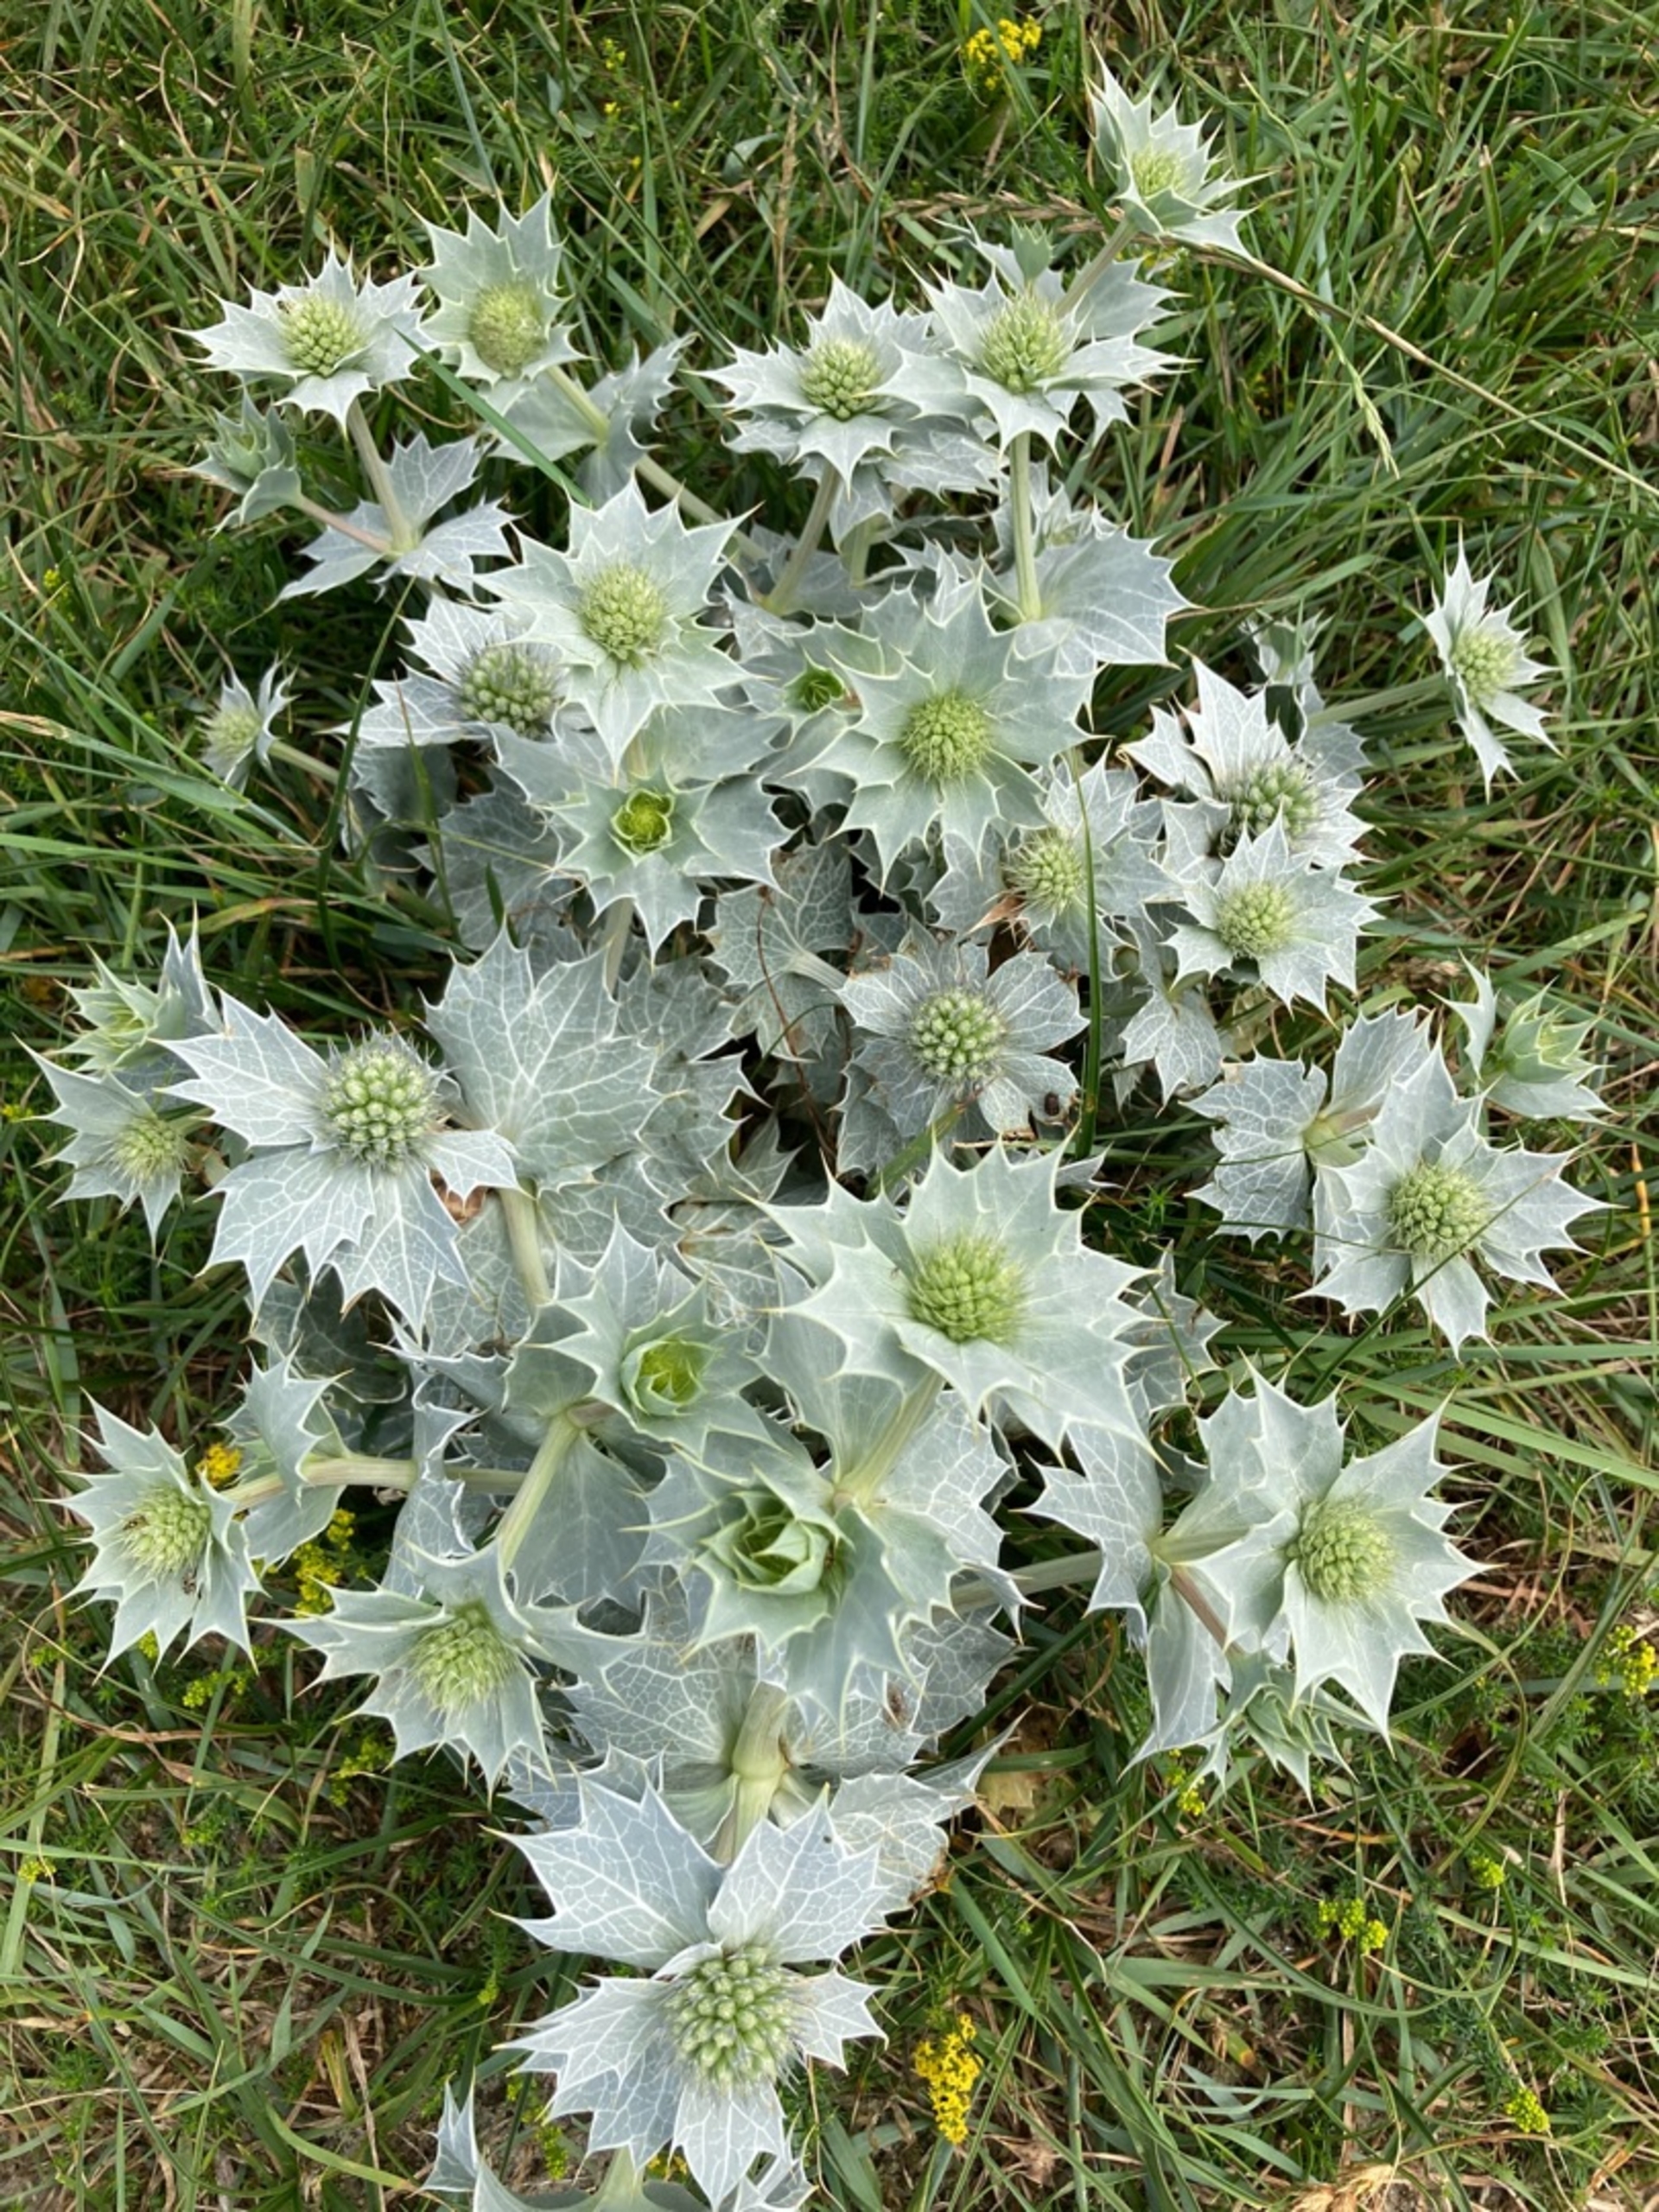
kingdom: Plantae
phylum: Tracheophyta
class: Magnoliopsida
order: Apiales
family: Apiaceae
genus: Eryngium
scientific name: Eryngium maritimum
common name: Strand-mandstro
